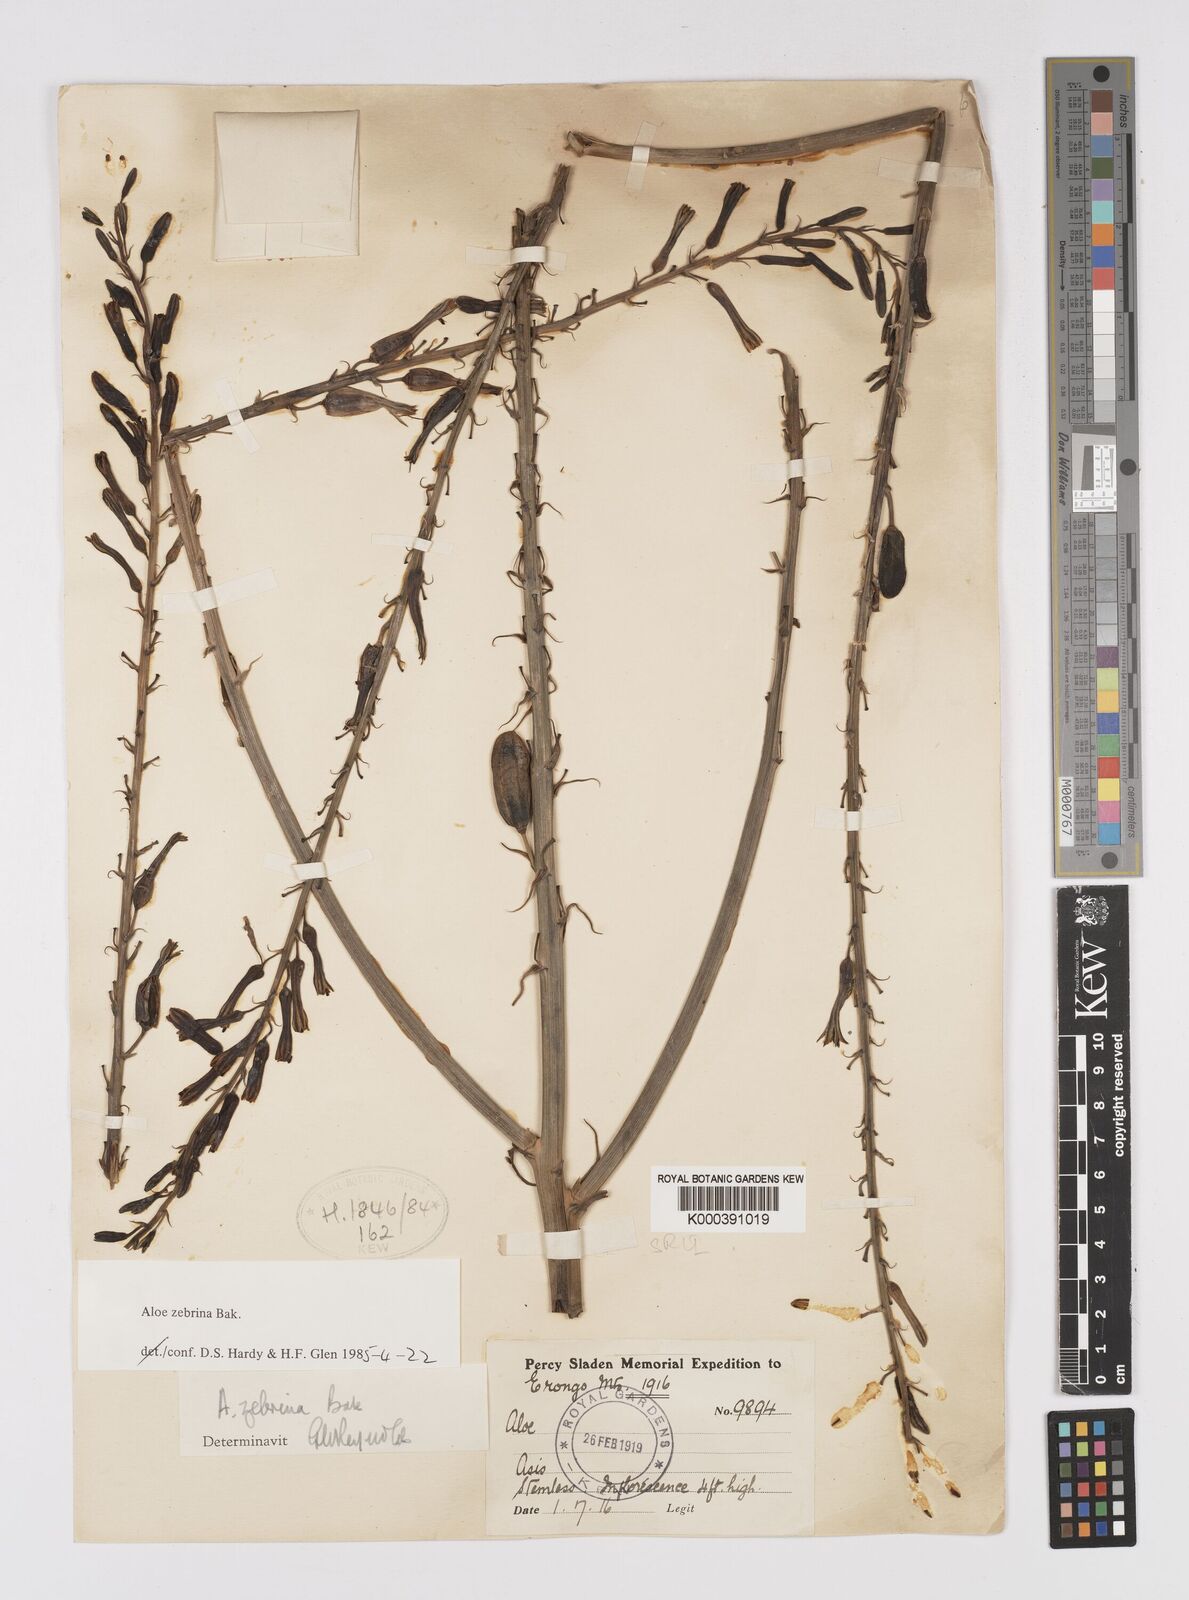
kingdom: Plantae
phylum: Tracheophyta
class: Liliopsida
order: Asparagales
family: Asphodelaceae
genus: Aloe
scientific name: Aloe zebrina
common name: Zebra-leaf aloe
